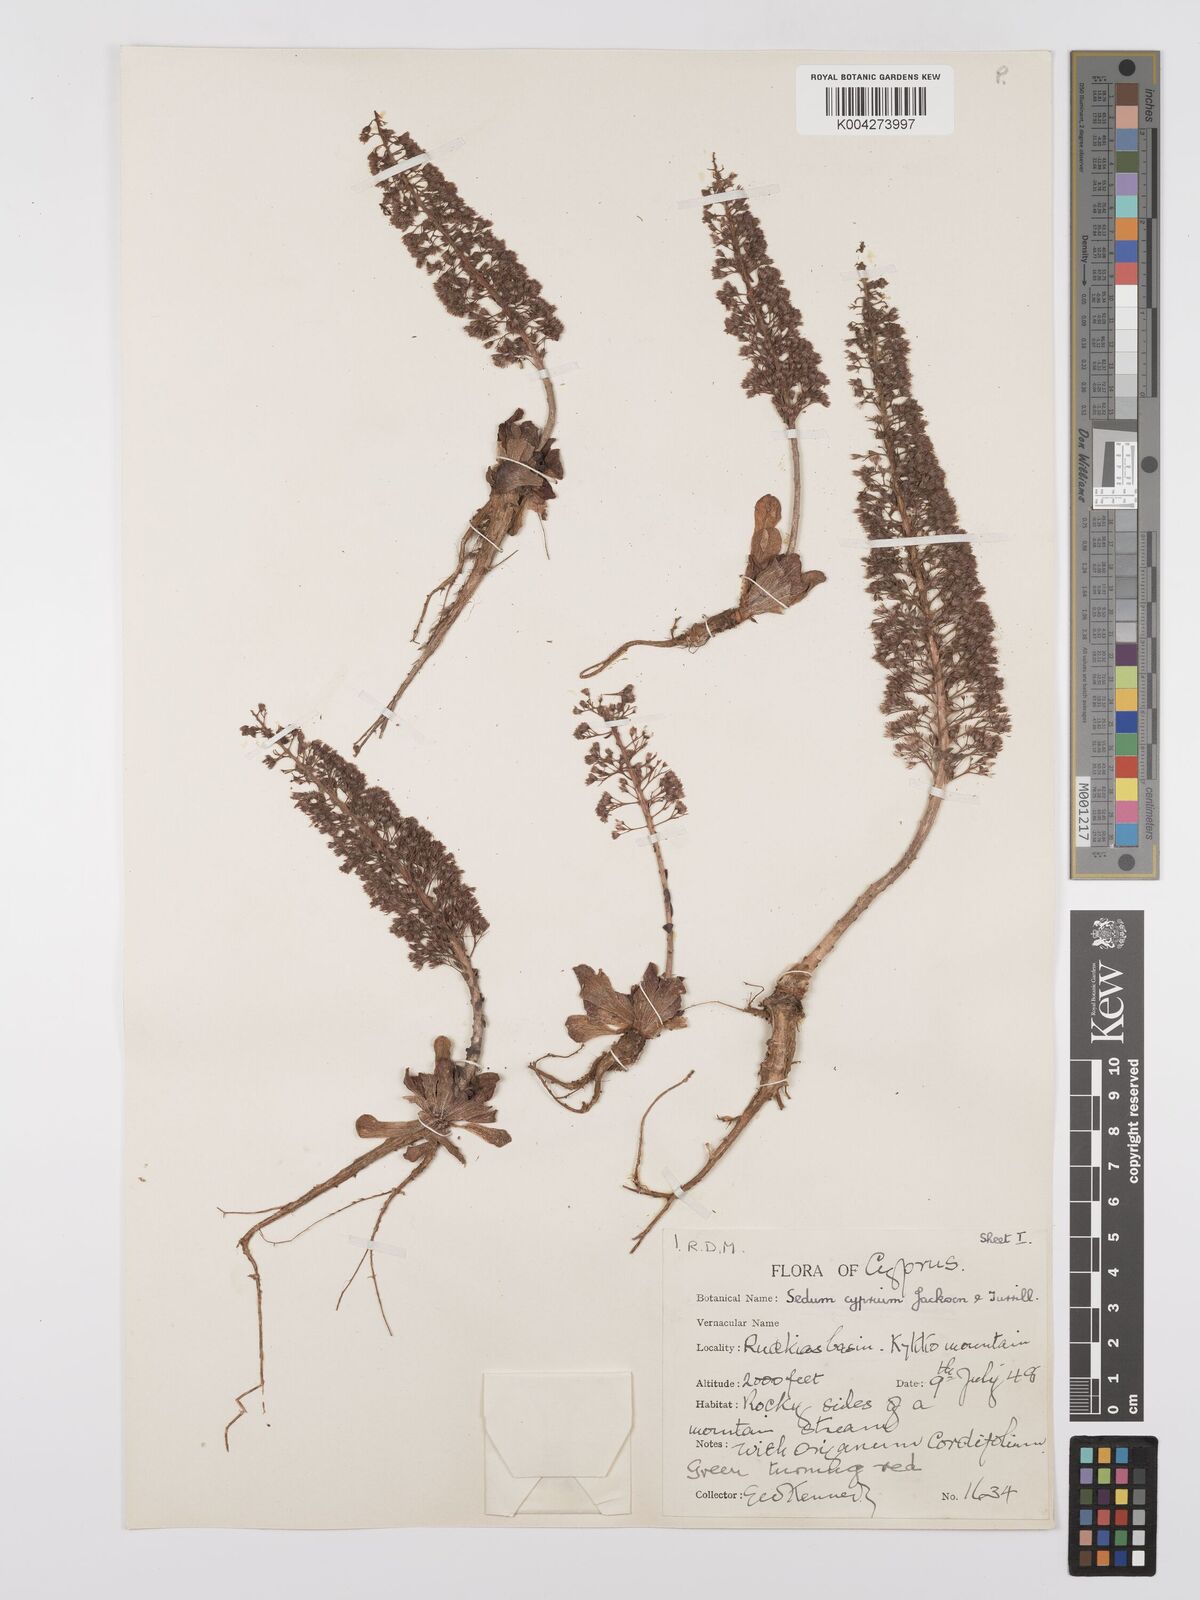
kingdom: Plantae
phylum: Tracheophyta
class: Magnoliopsida
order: Saxifragales
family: Crassulaceae
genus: Sedum
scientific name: Sedum cyprium
